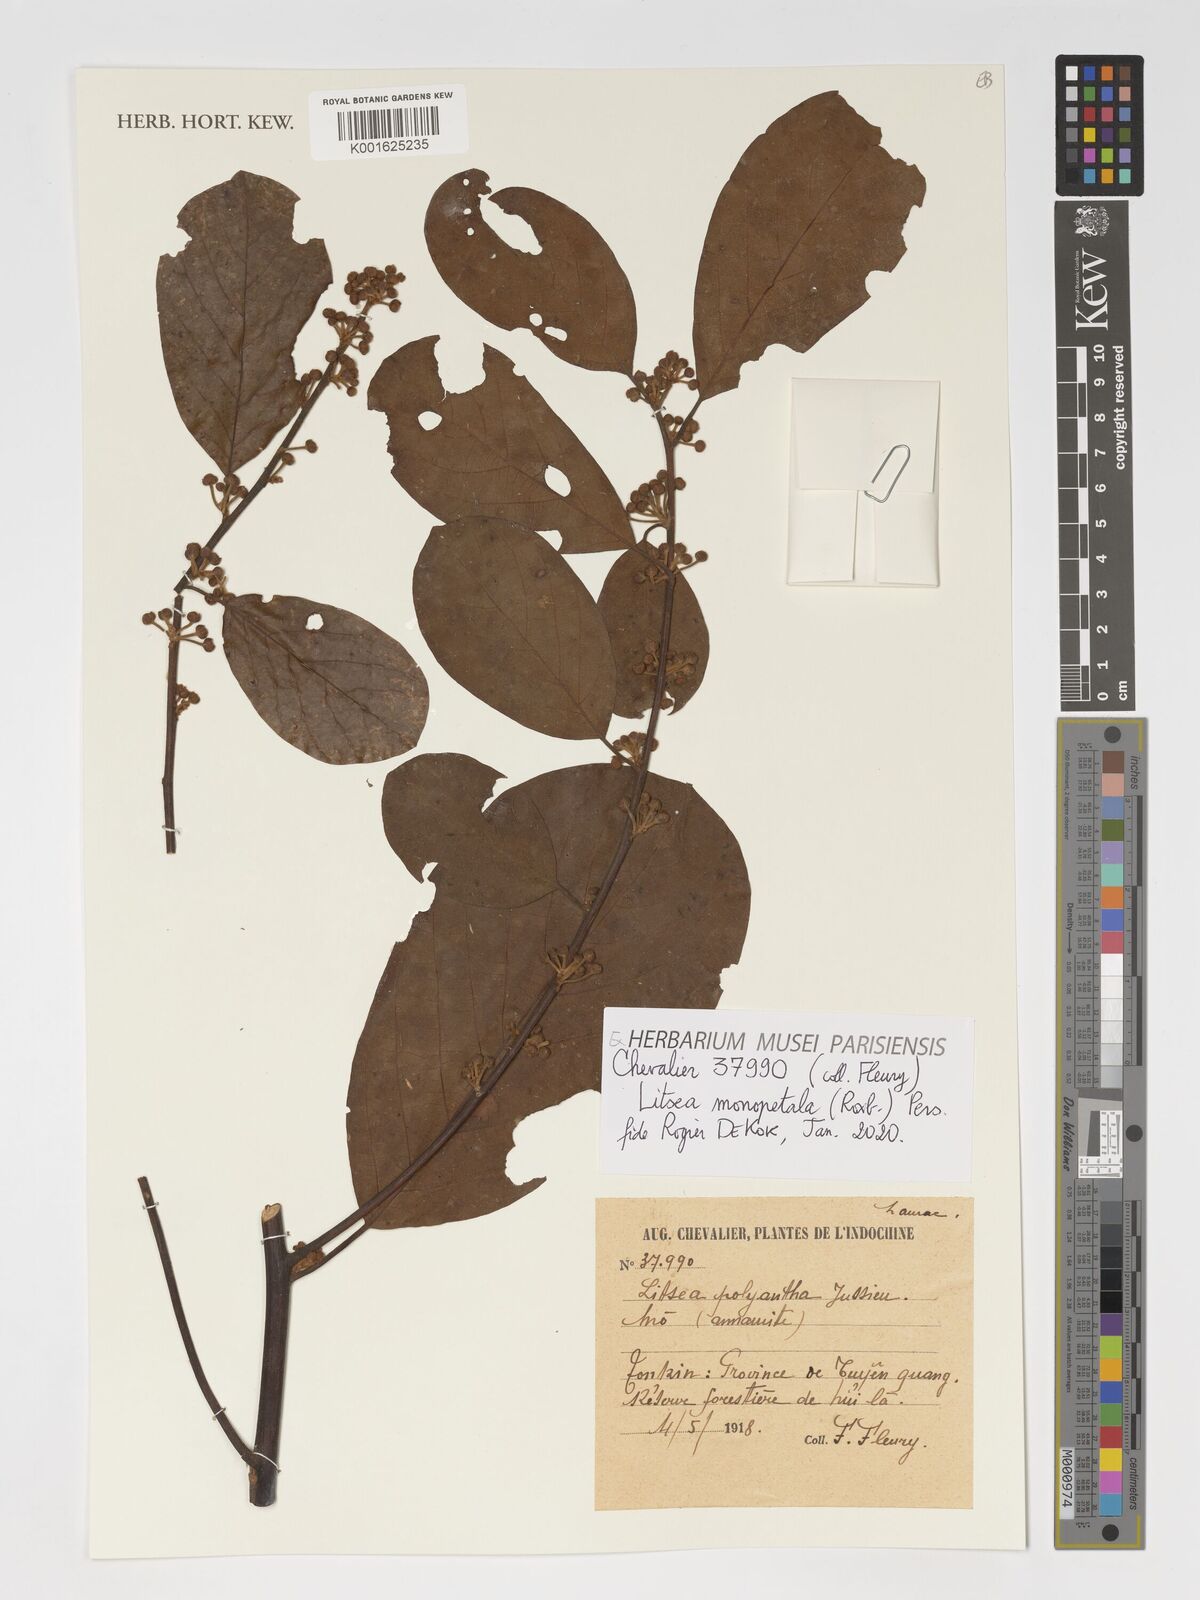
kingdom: Plantae
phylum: Tracheophyta
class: Magnoliopsida
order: Laurales
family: Lauraceae
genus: Litsea
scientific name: Litsea monopetala
